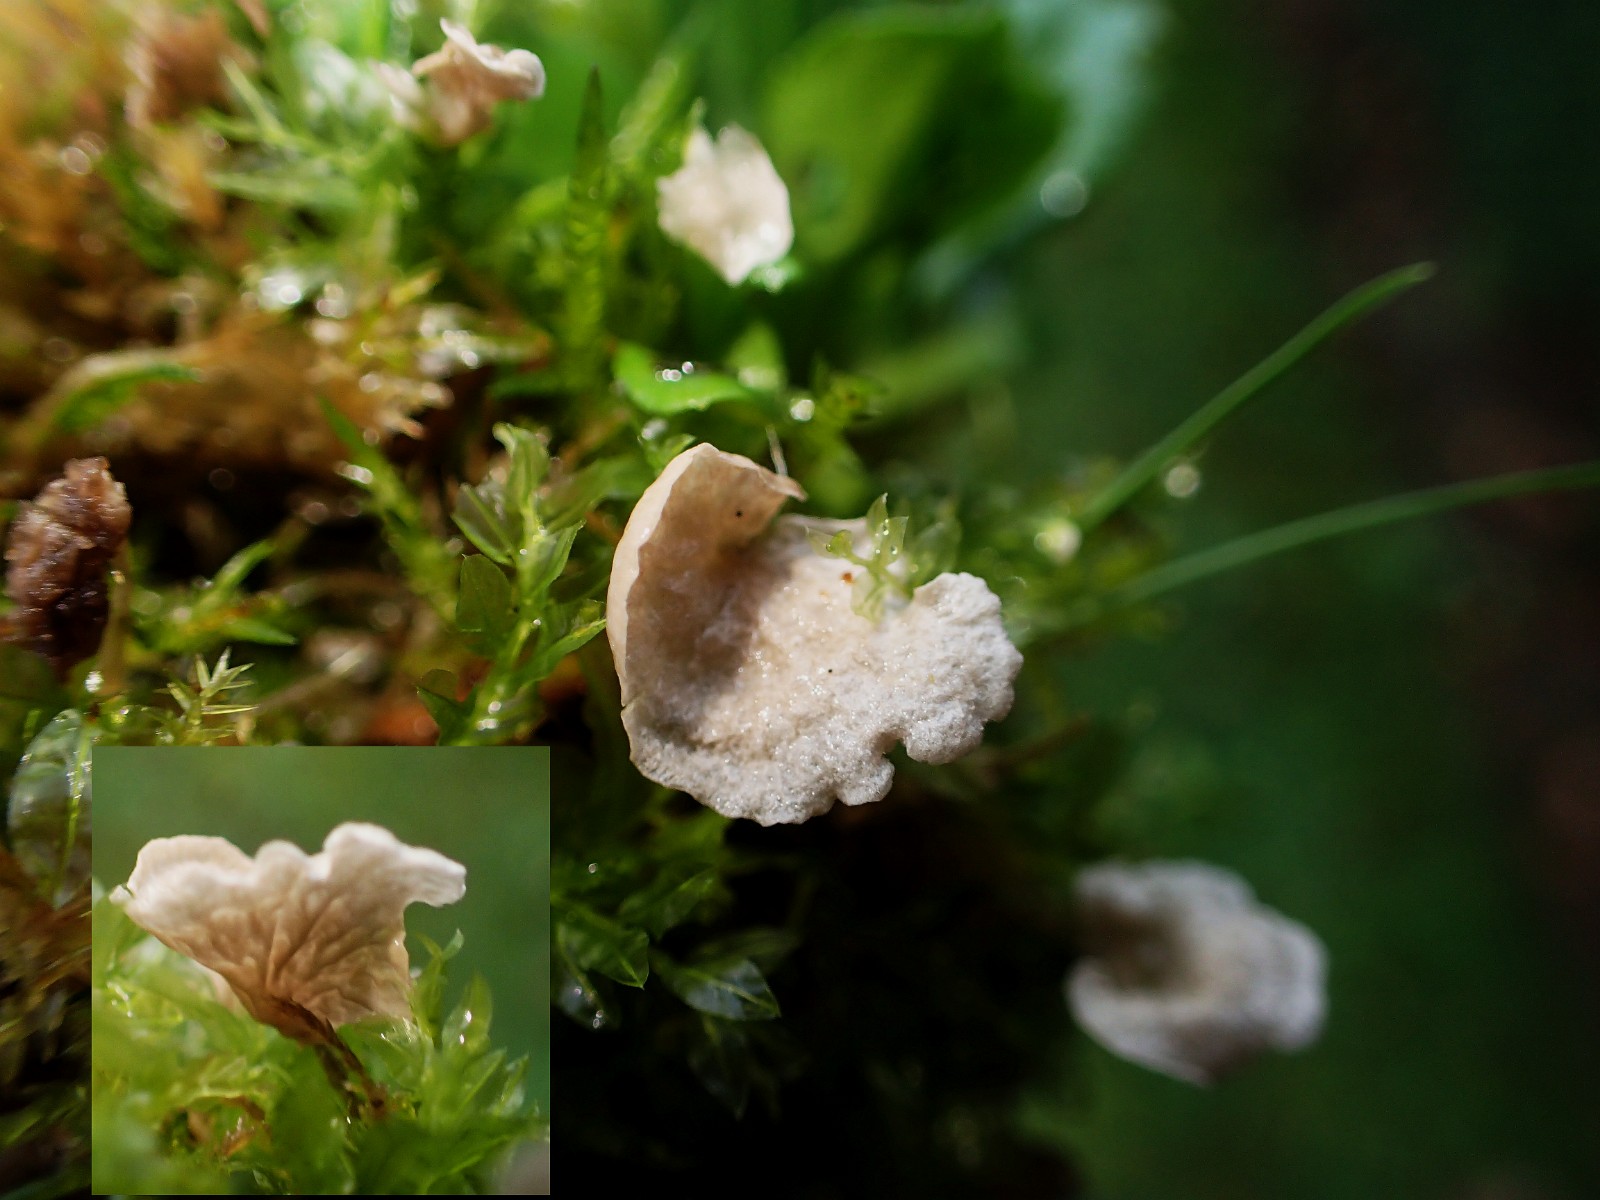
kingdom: Fungi
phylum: Basidiomycota
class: Agaricomycetes
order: Agaricales
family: Hygrophoraceae
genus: Arrhenia
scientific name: Arrhenia retiruga
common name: lille fontænehat
